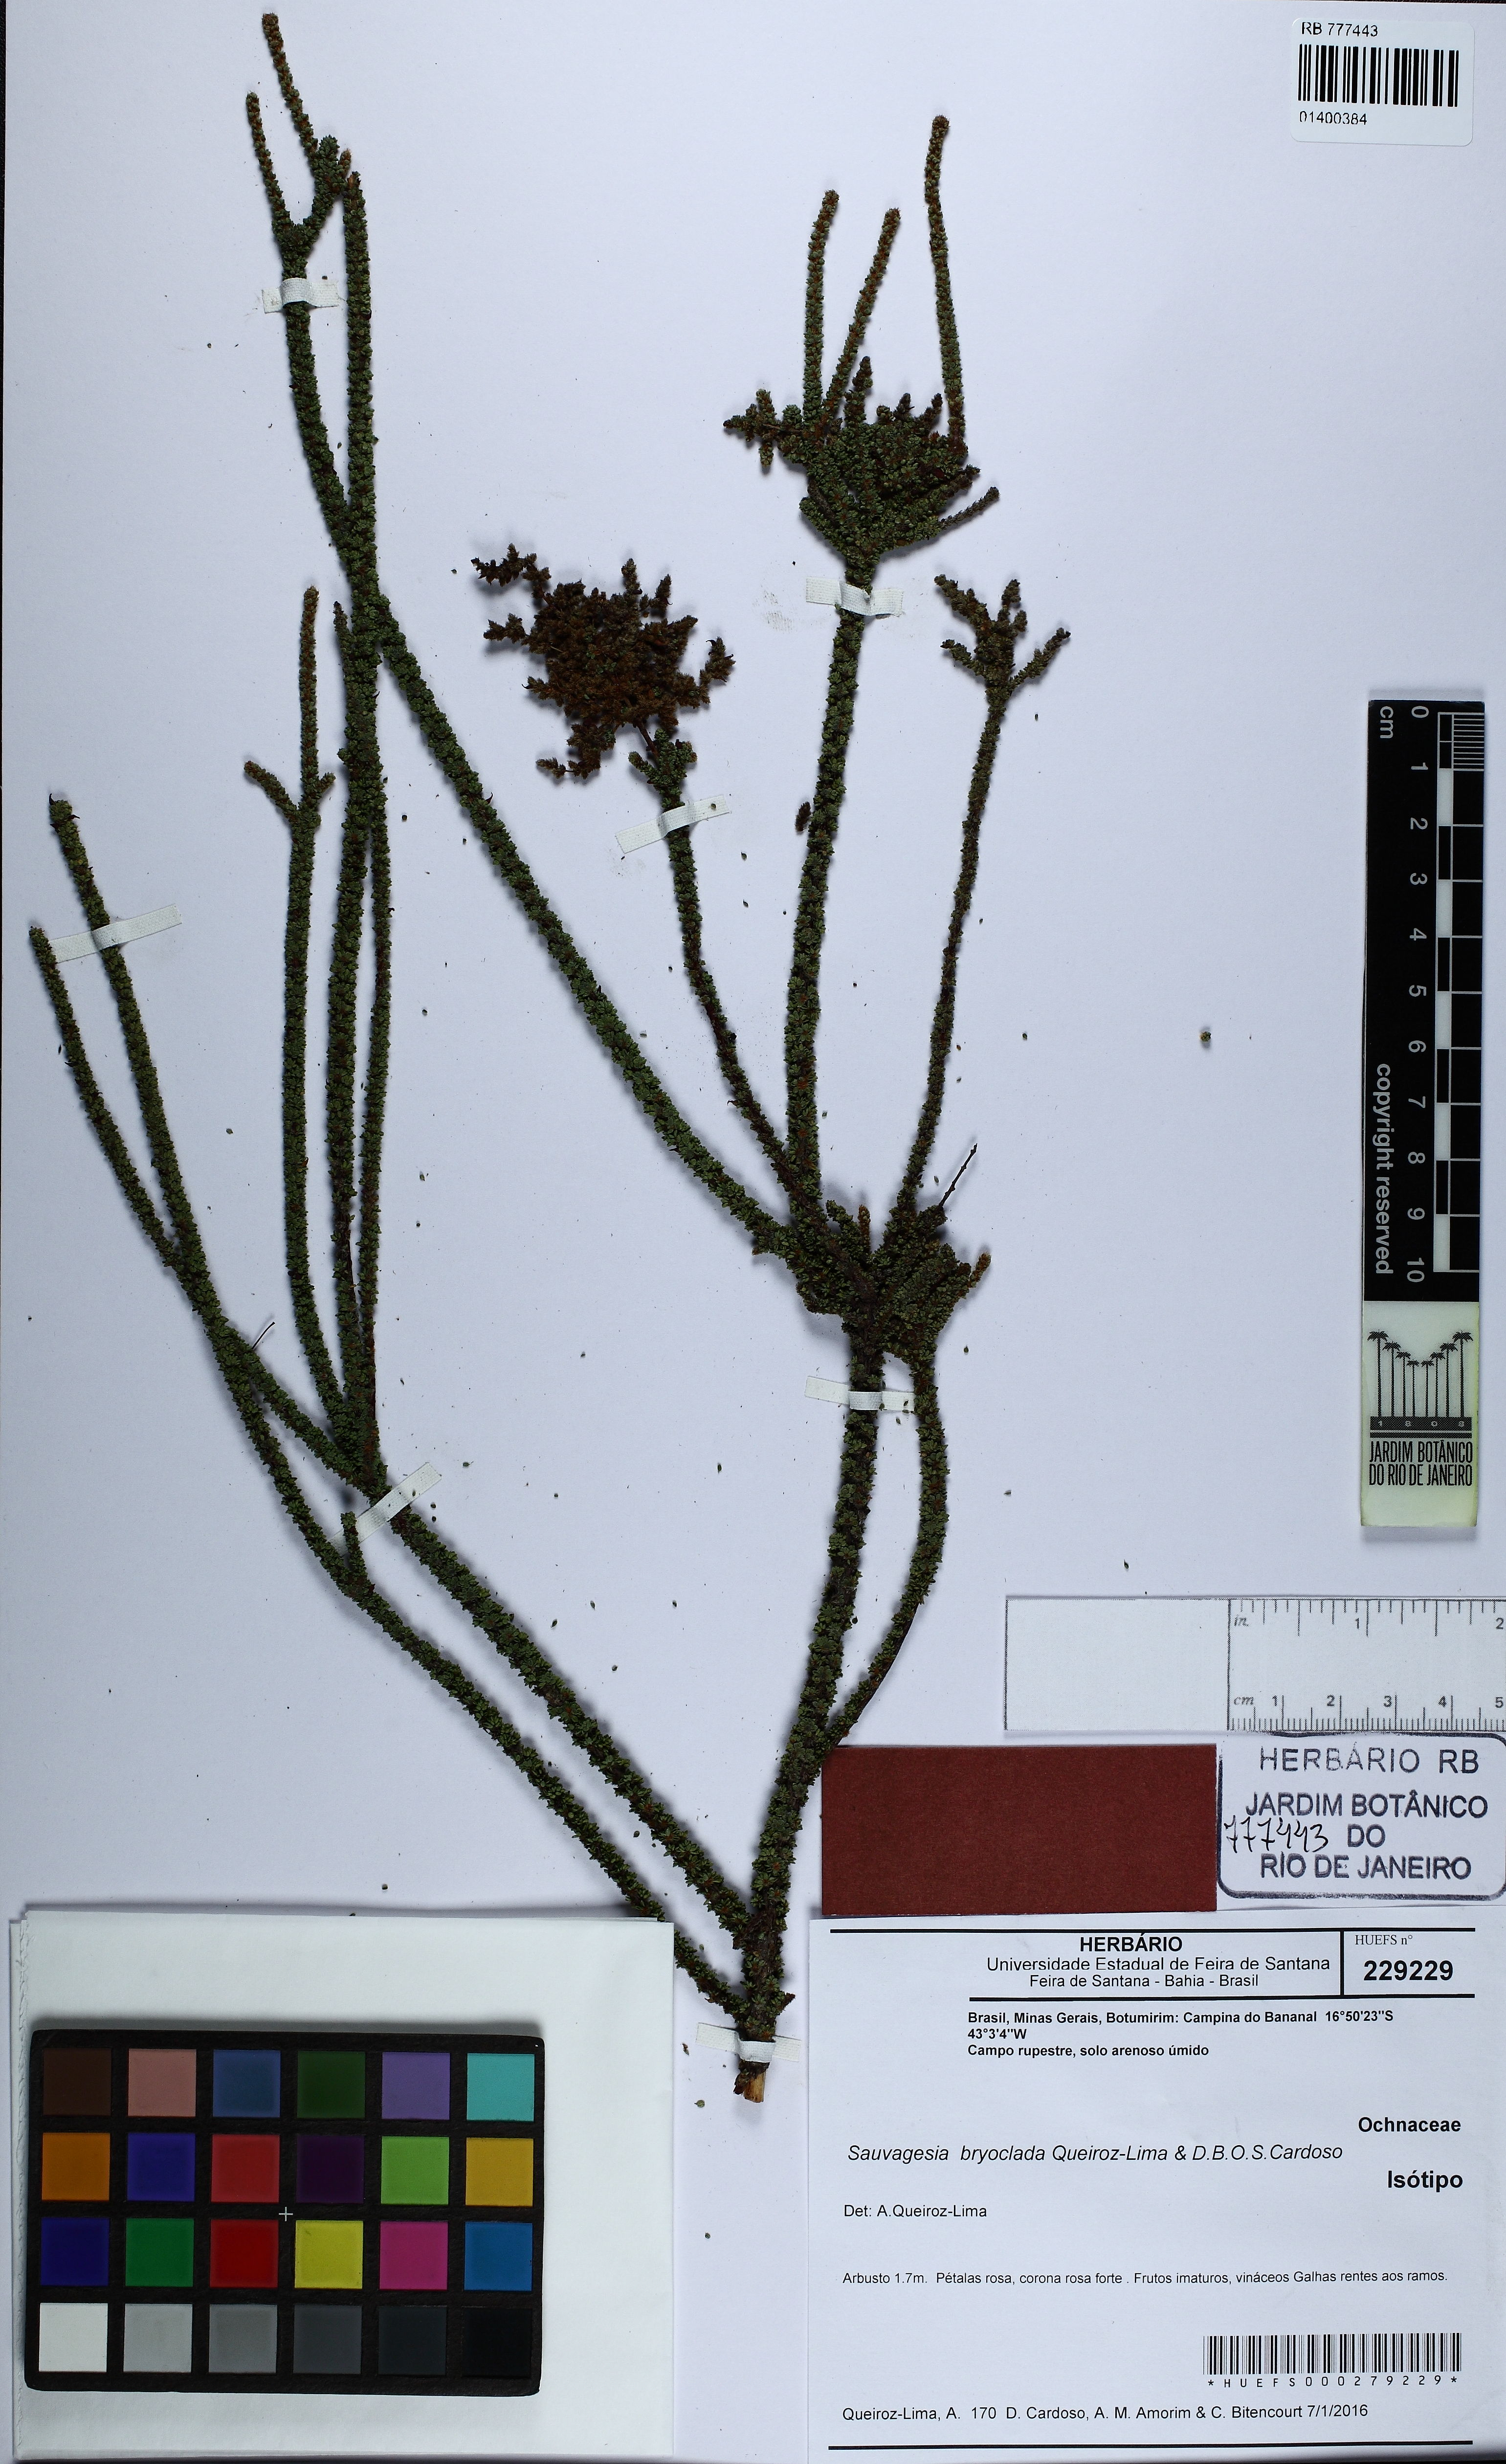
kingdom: Plantae
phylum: Tracheophyta
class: Magnoliopsida
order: Malpighiales
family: Ochnaceae
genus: Sauvagesia
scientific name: Sauvagesia bryoclada
